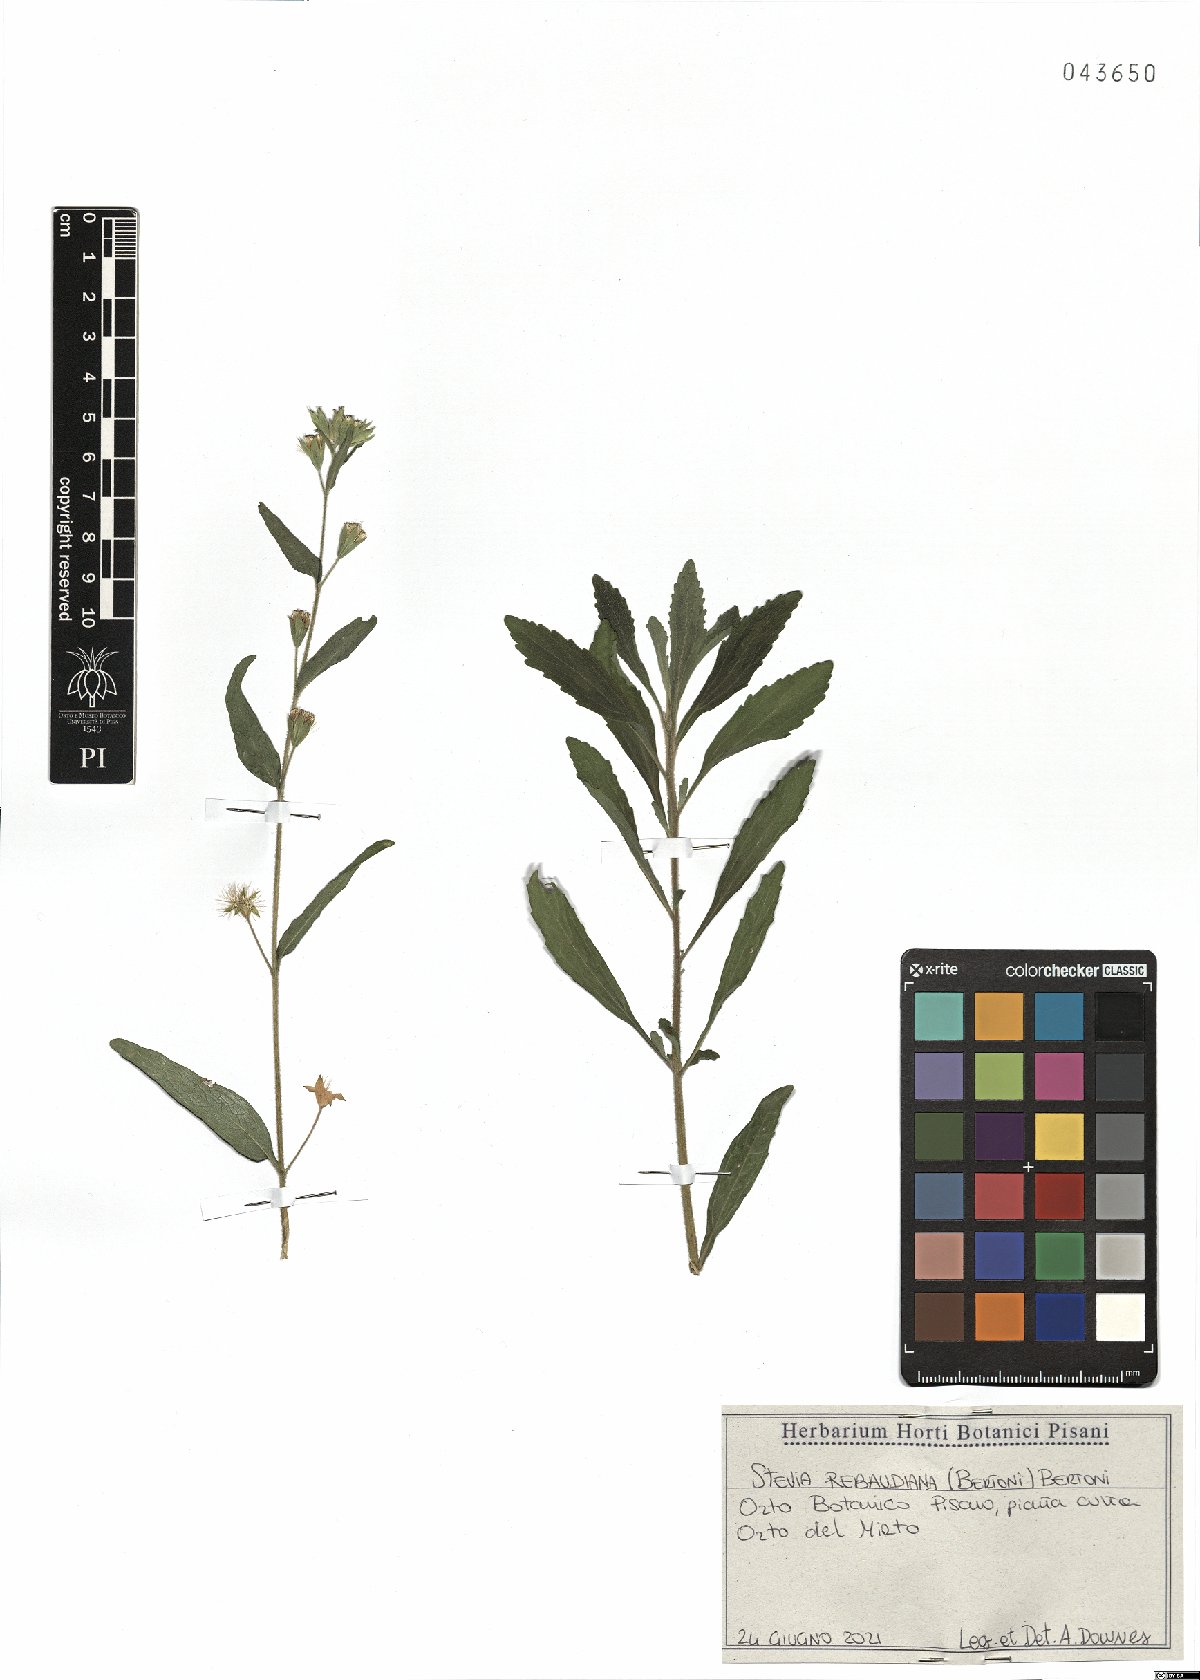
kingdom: Plantae
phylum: Tracheophyta
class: Magnoliopsida
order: Asterales
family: Asteraceae
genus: Stevia
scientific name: Stevia rebaudiana
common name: Stevia
